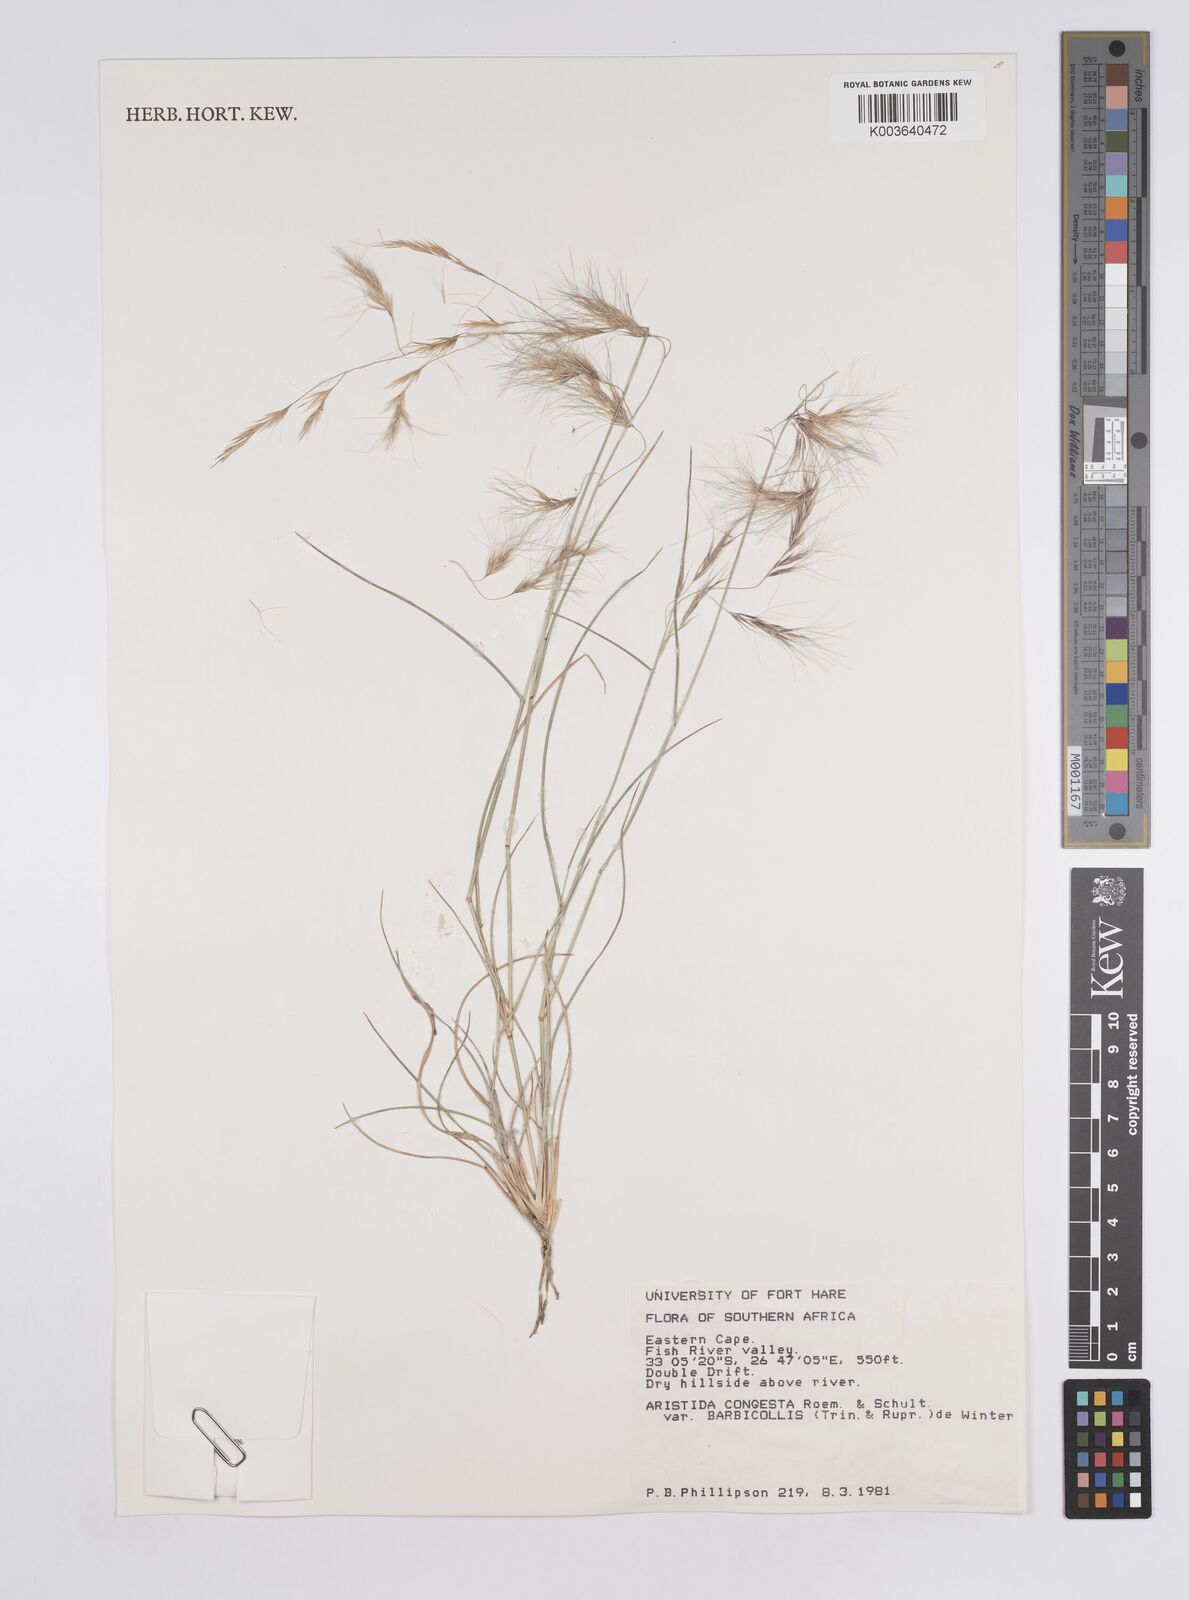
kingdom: Plantae
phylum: Tracheophyta
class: Liliopsida
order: Poales
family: Poaceae
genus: Aristida
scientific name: Aristida barbicollis
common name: Spreading prickle grass
